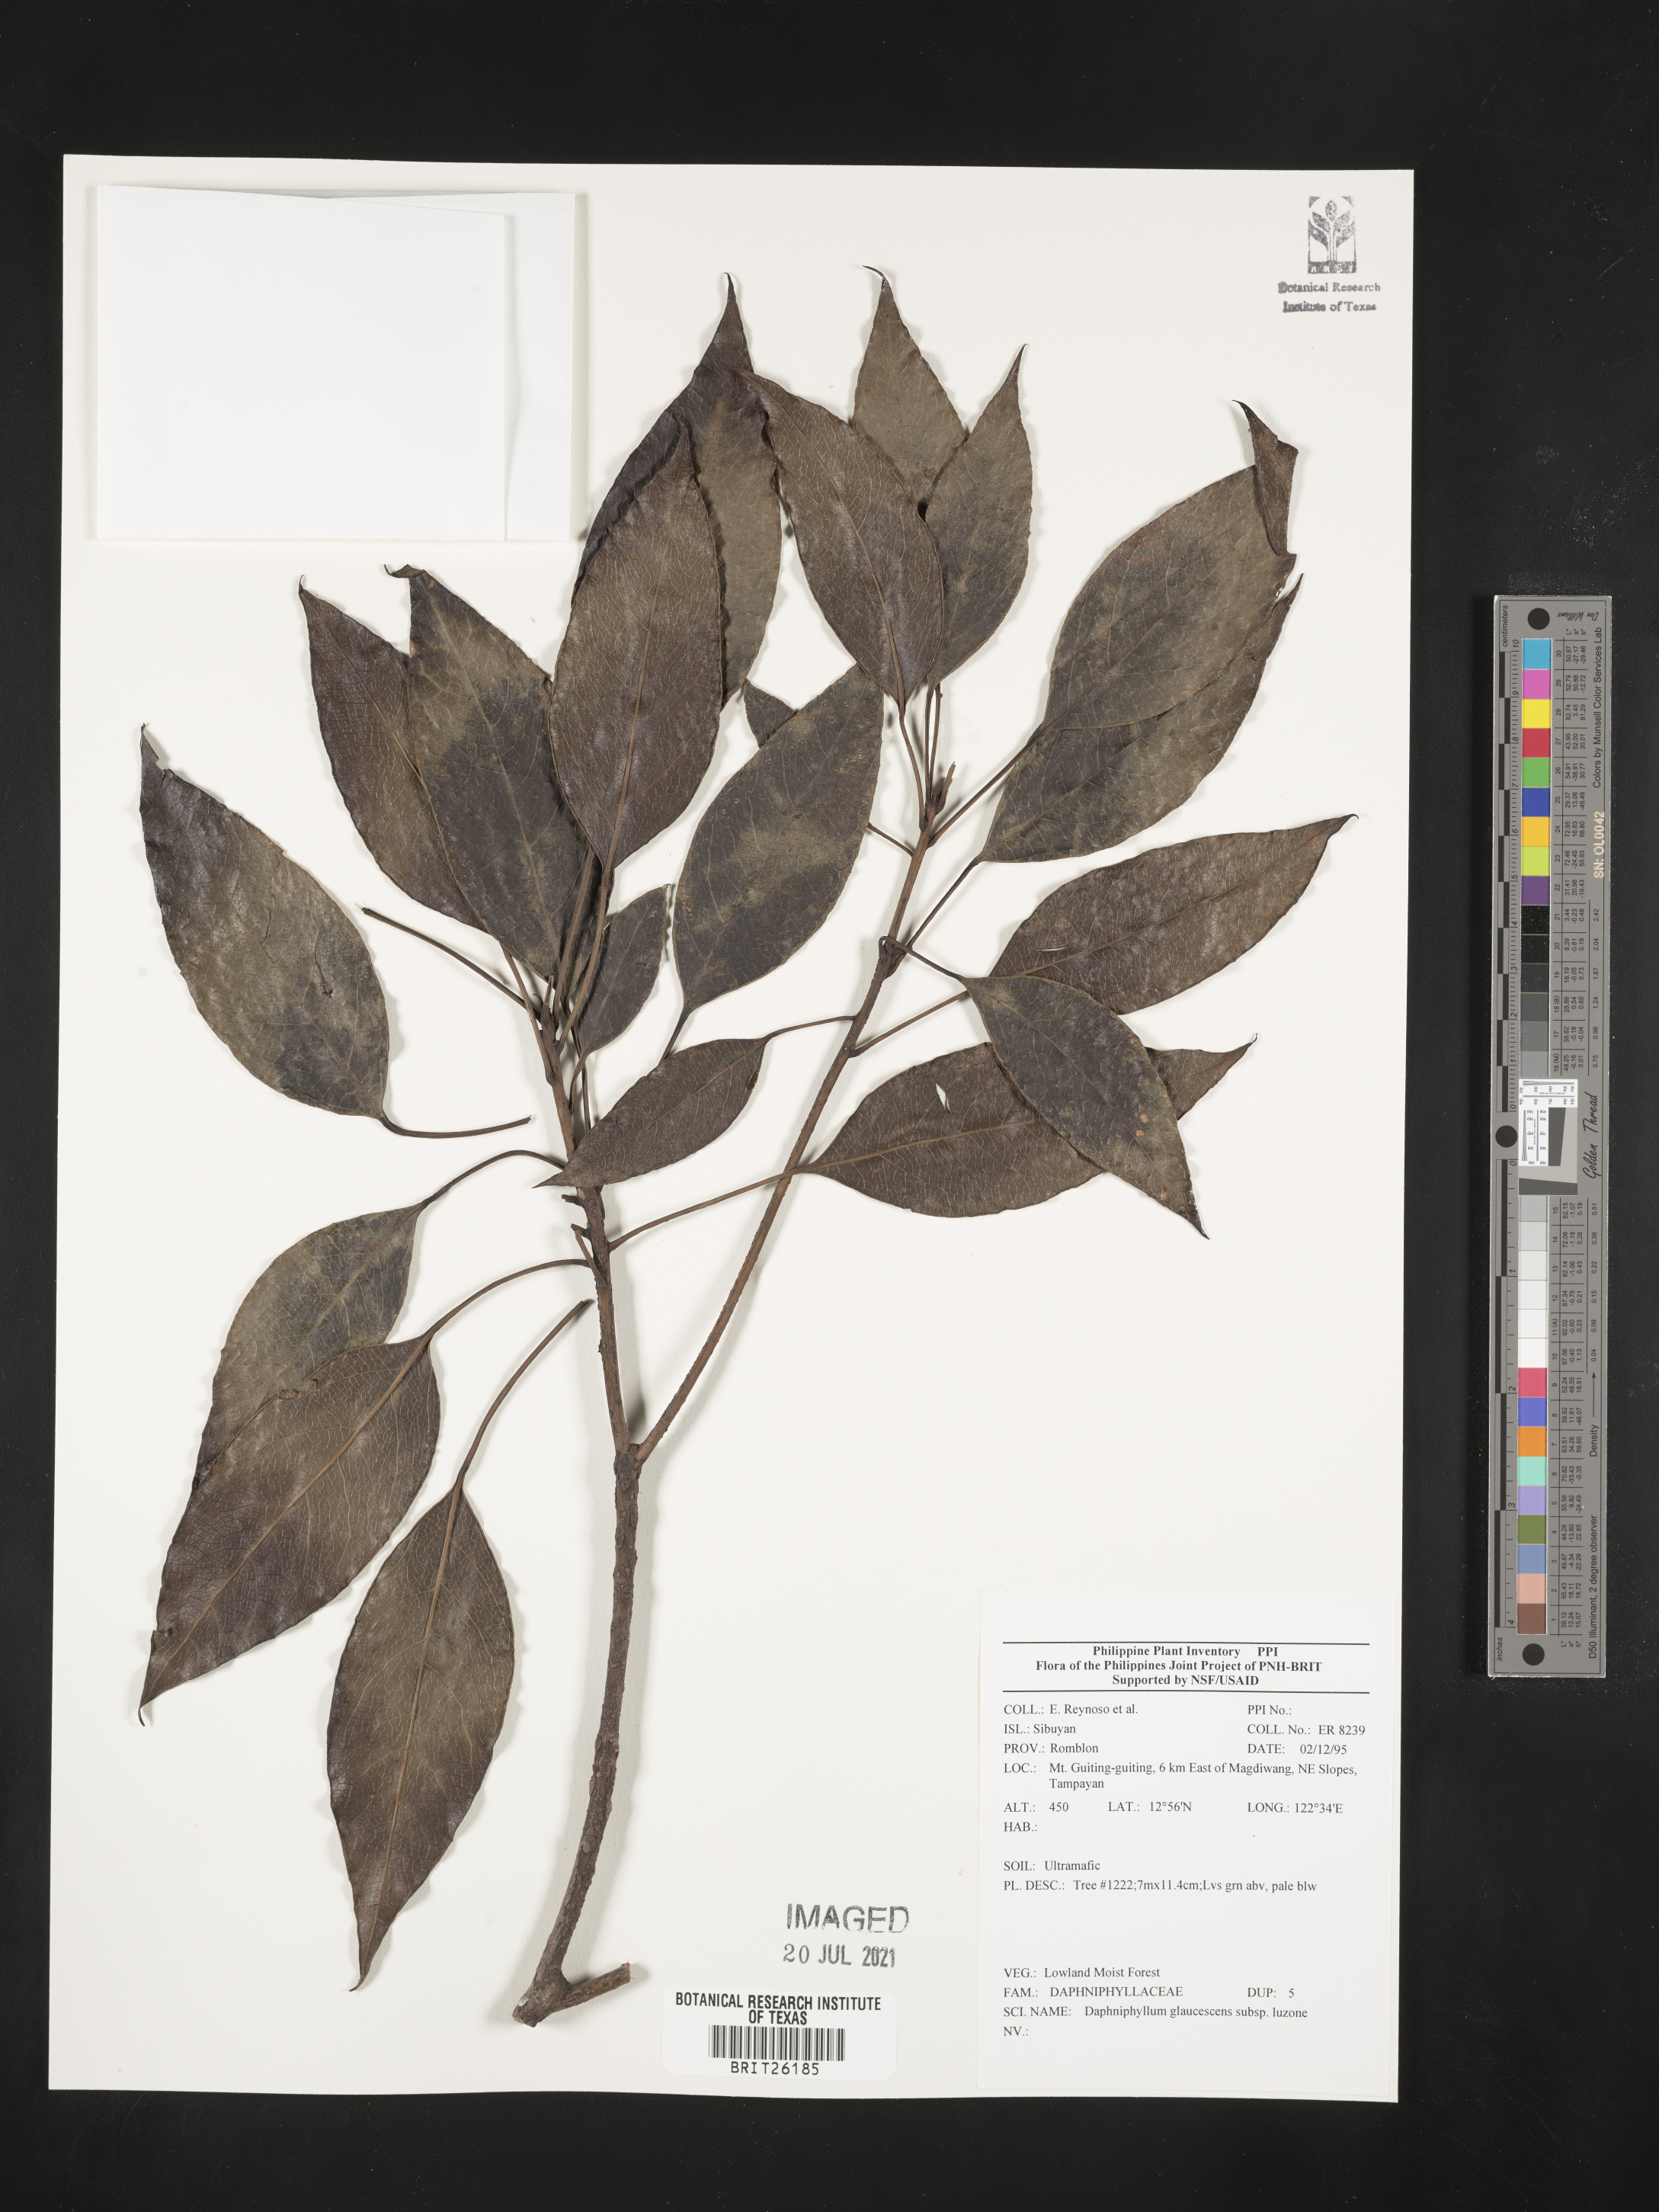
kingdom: Plantae
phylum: Tracheophyta
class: Magnoliopsida
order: Saxifragales
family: Daphniphyllaceae
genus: Daphniphyllum
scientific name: Daphniphyllum glaucescens
